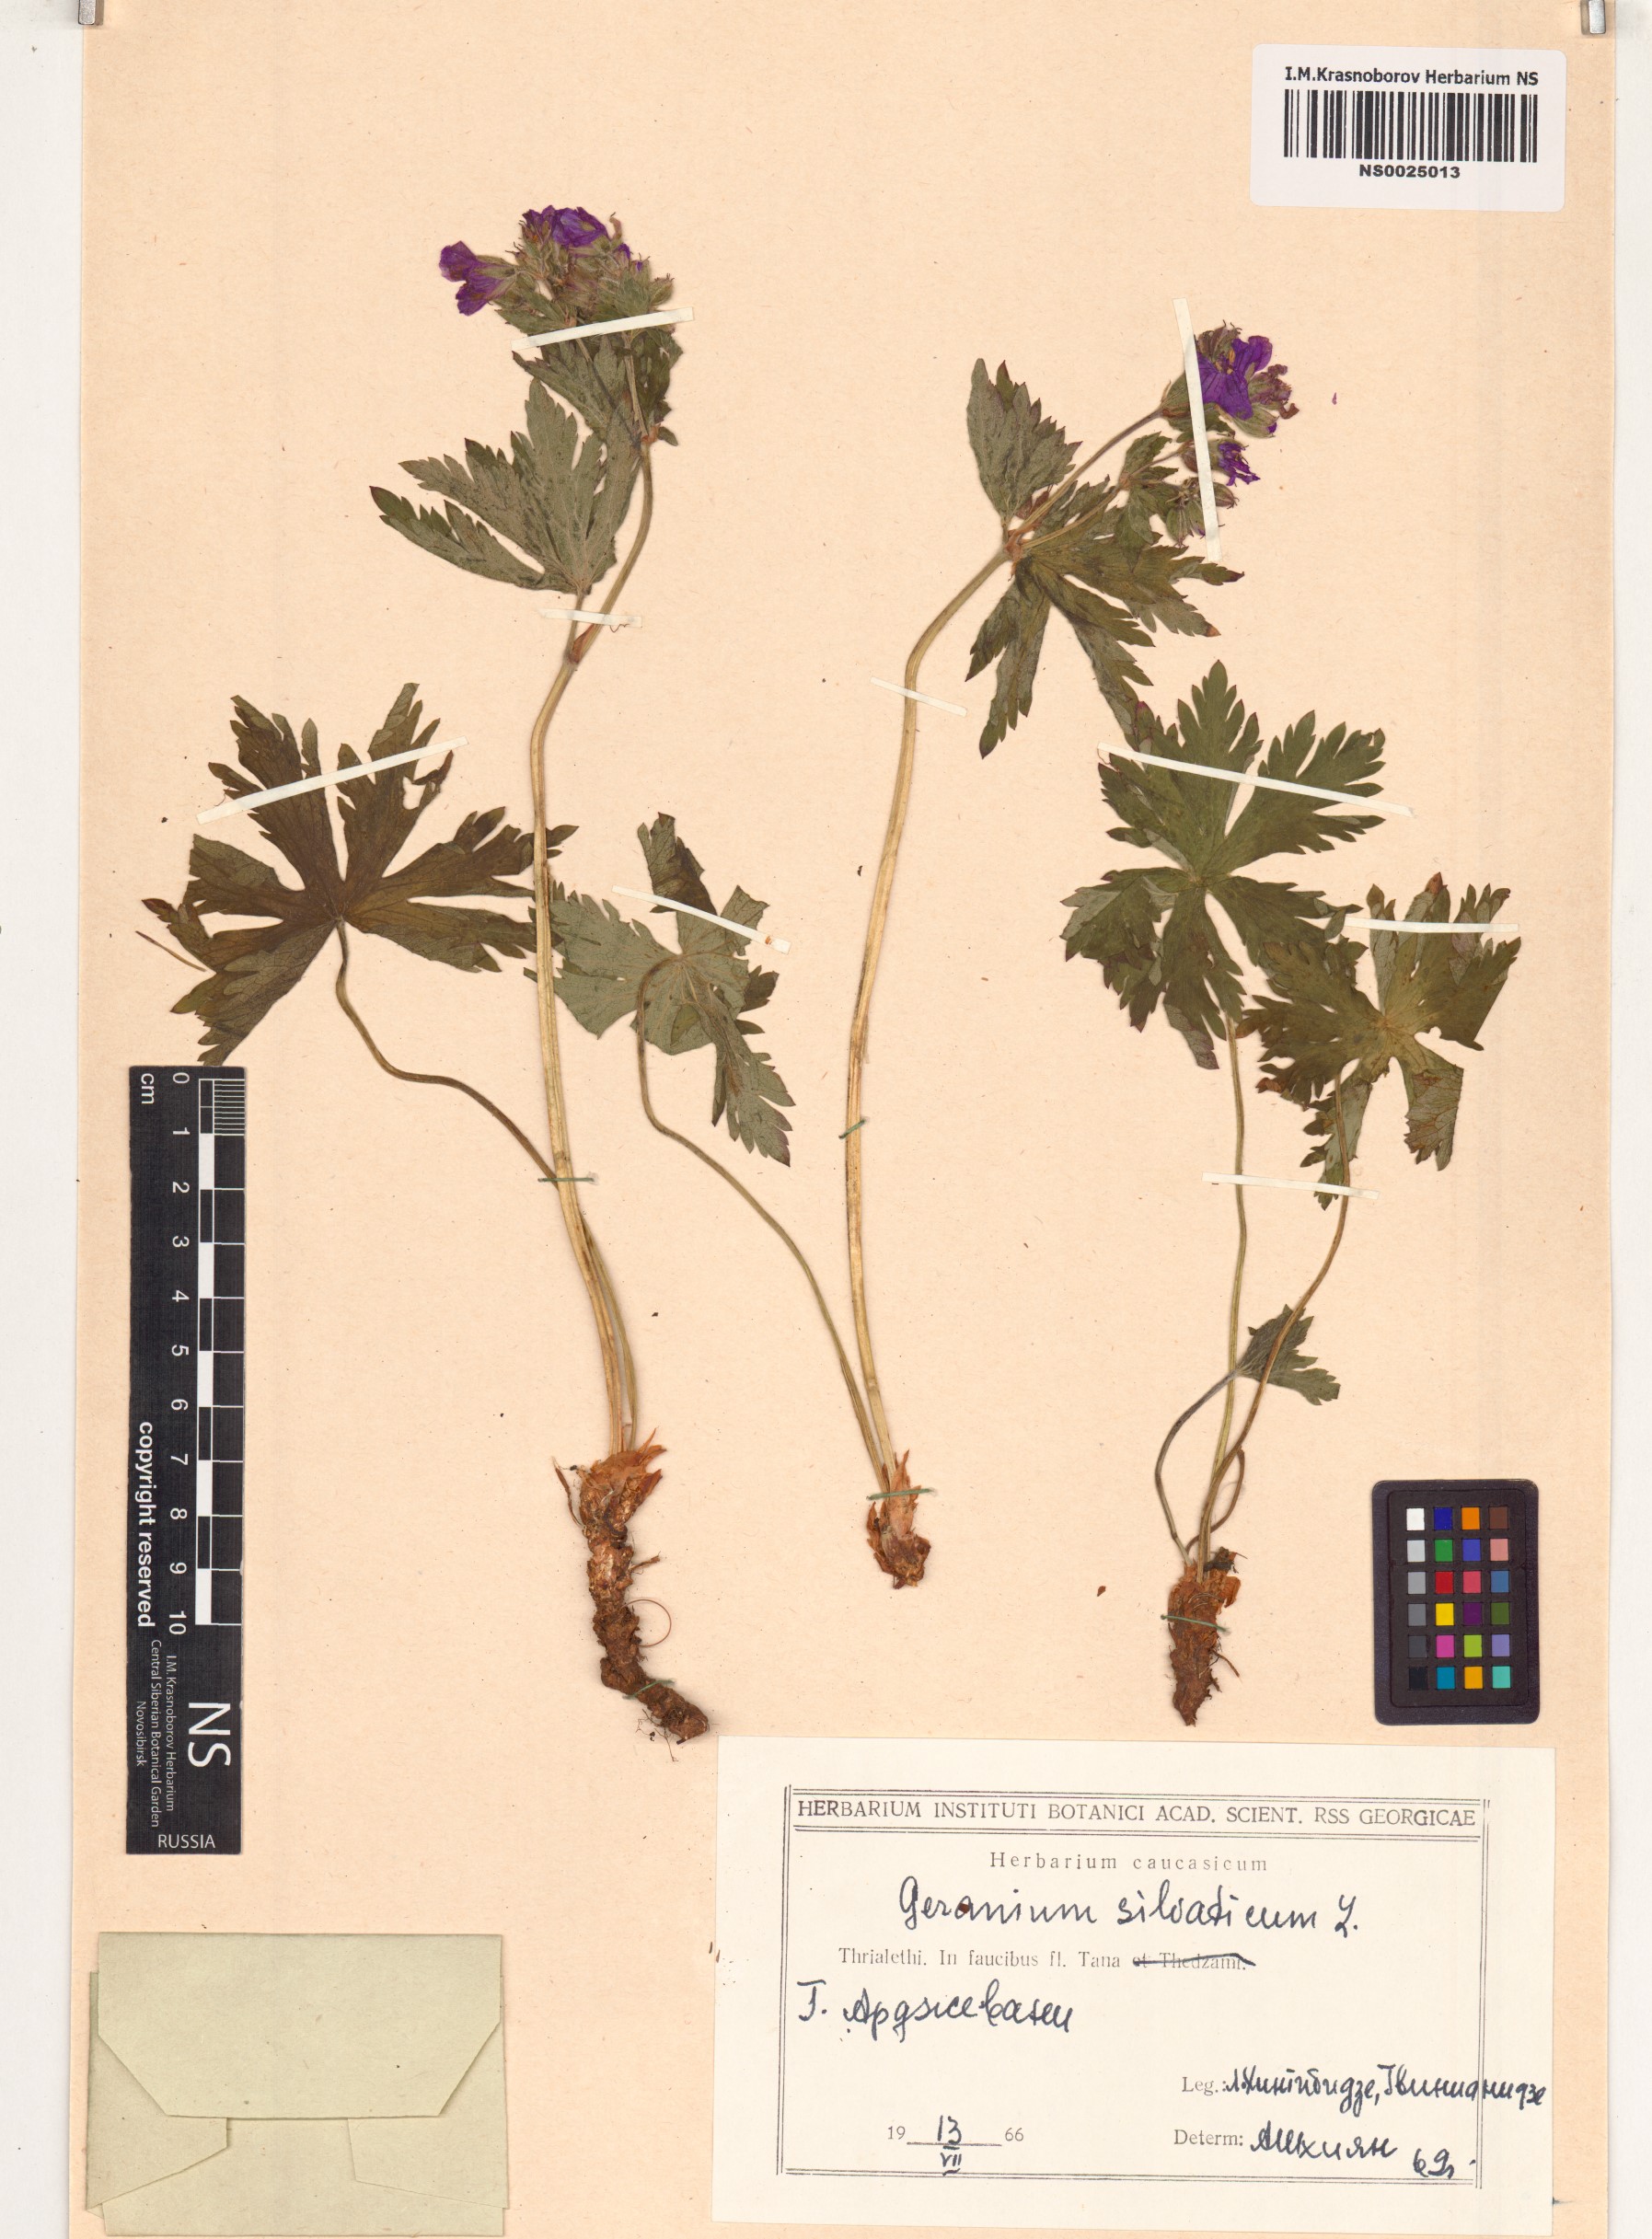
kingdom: Plantae
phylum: Tracheophyta
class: Magnoliopsida
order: Geraniales
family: Geraniaceae
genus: Geranium
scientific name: Geranium sylvaticum
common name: Wood crane's-bill
